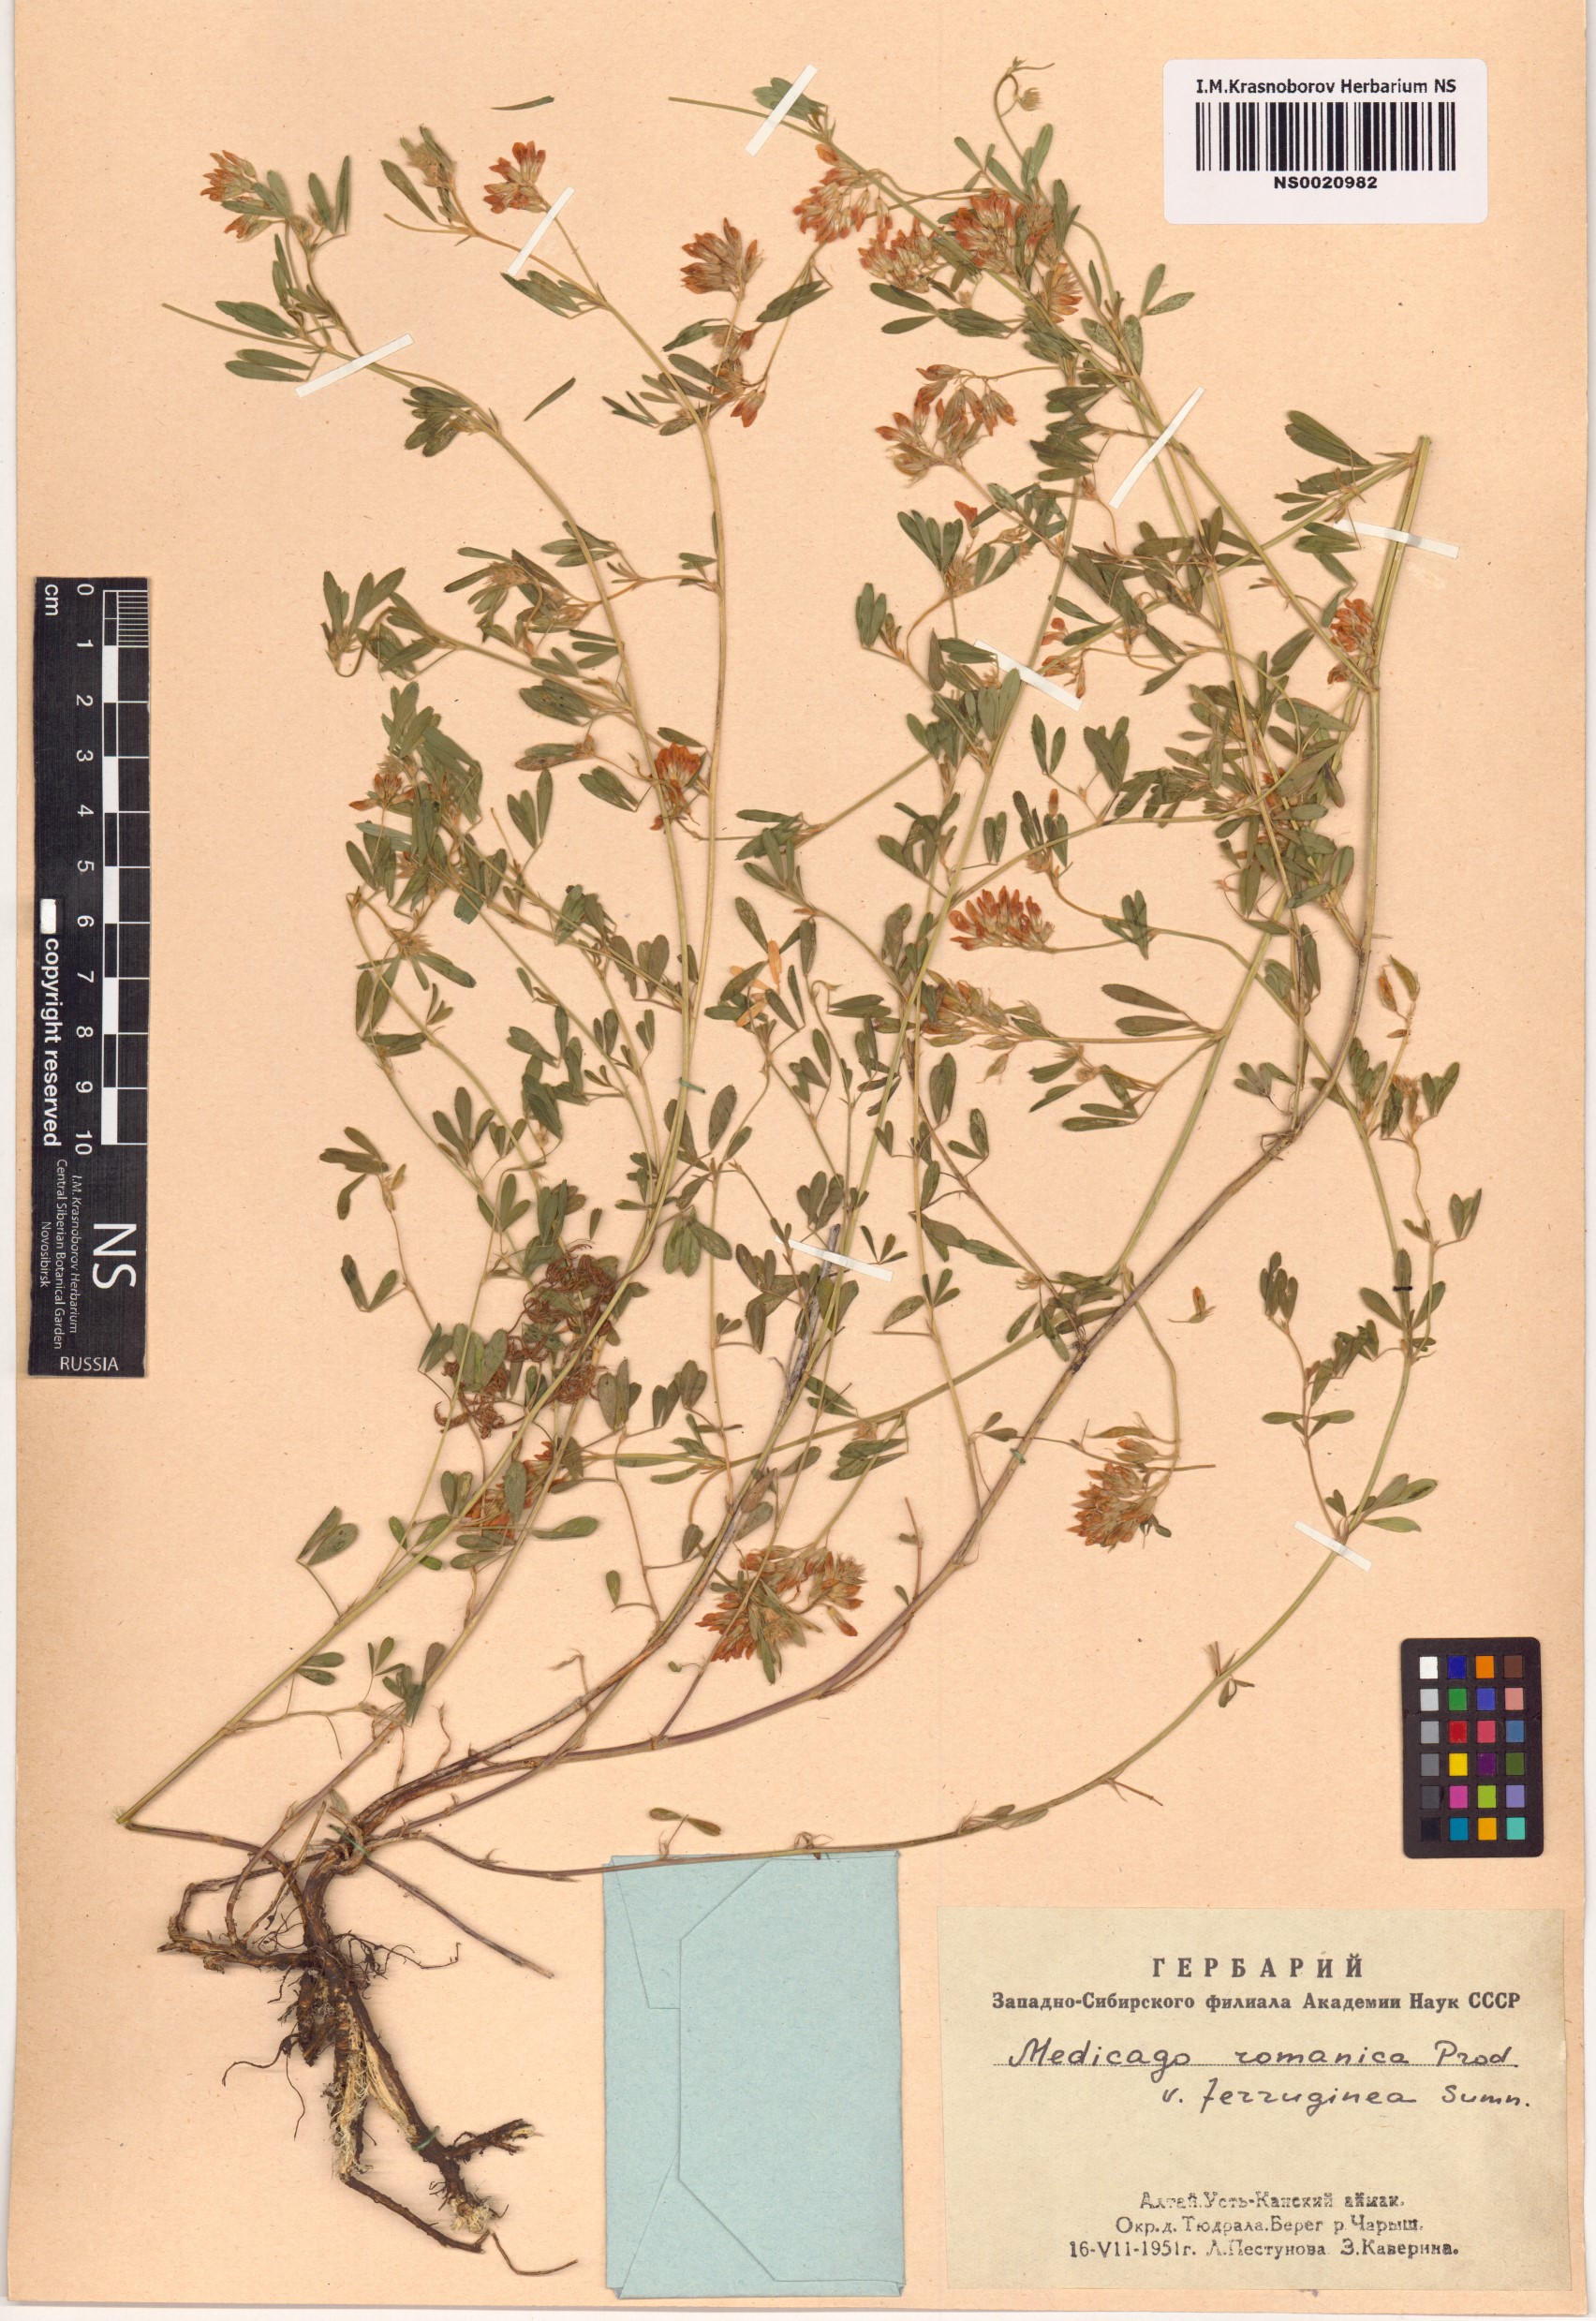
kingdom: Plantae
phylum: Tracheophyta
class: Magnoliopsida
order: Fabales
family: Fabaceae
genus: Medicago
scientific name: Medicago falcata
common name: Sickle medick
